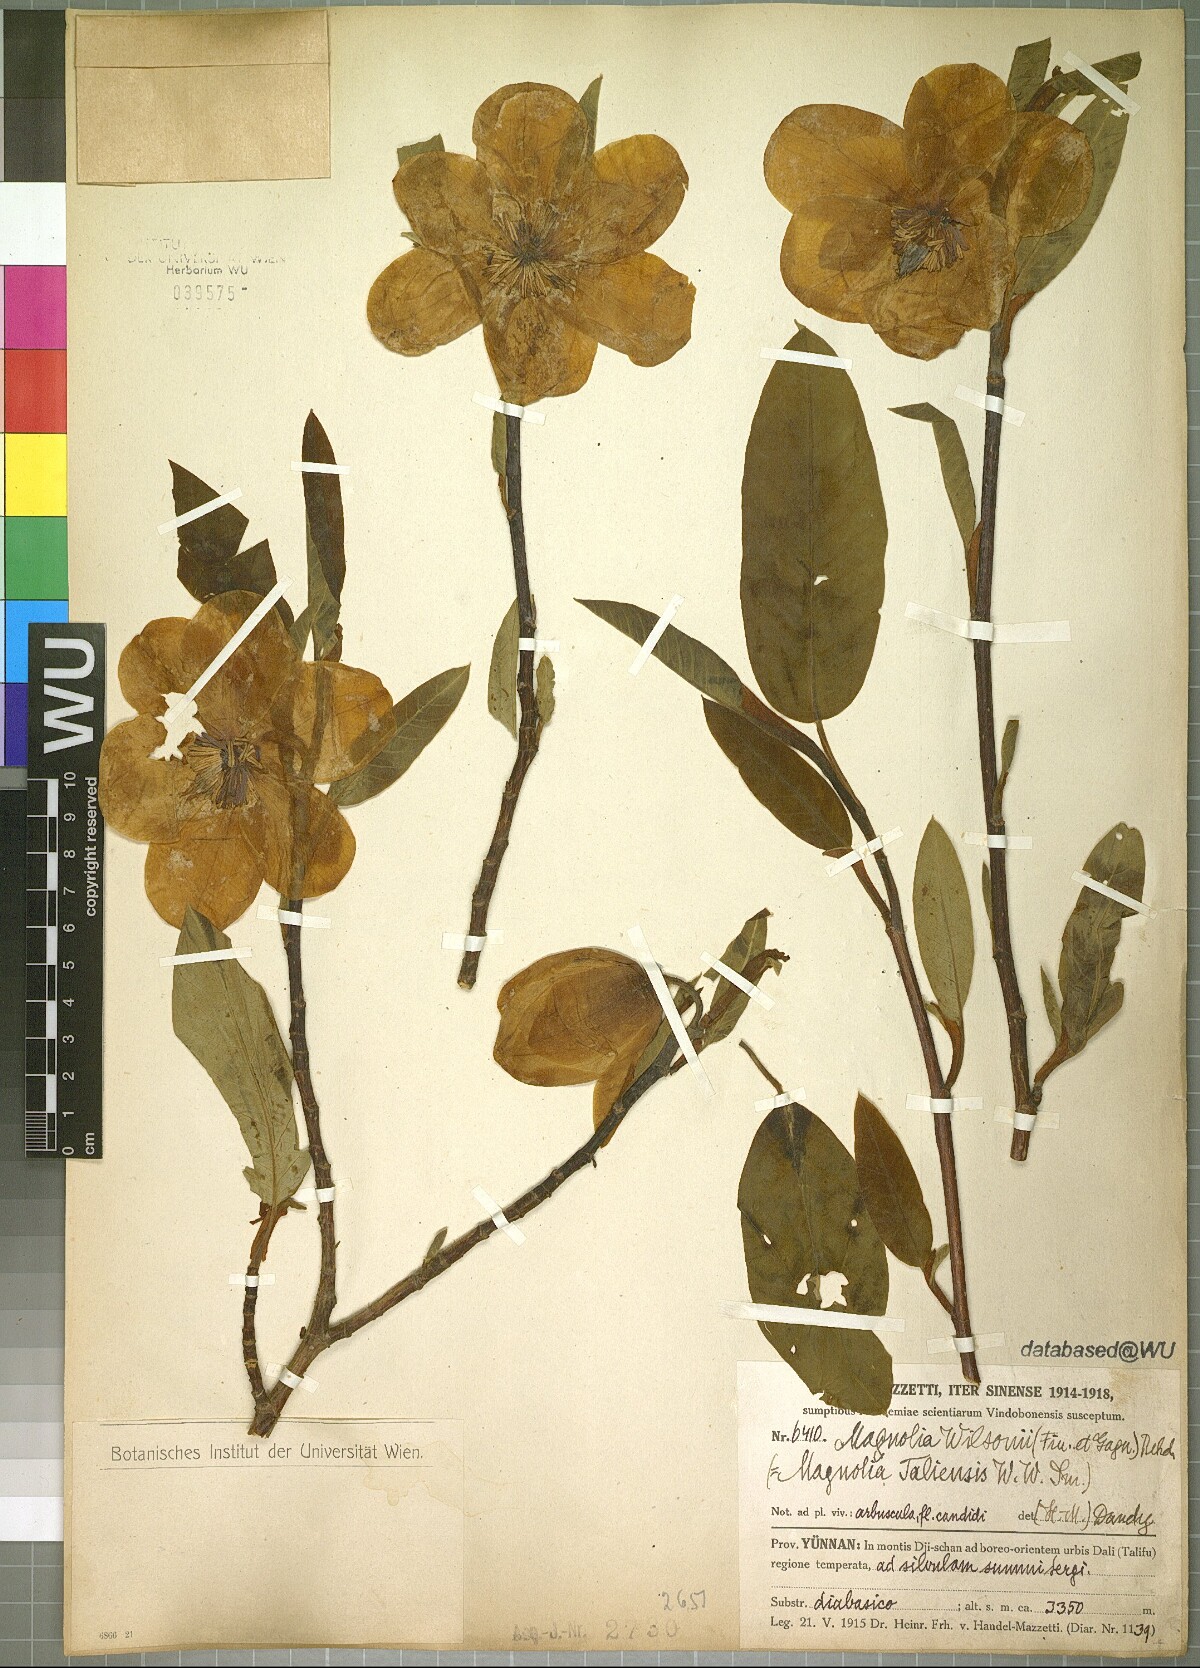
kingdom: Plantae
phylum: Tracheophyta
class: Magnoliopsida
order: Magnoliales
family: Magnoliaceae
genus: Magnolia
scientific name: Magnolia wilsonii
